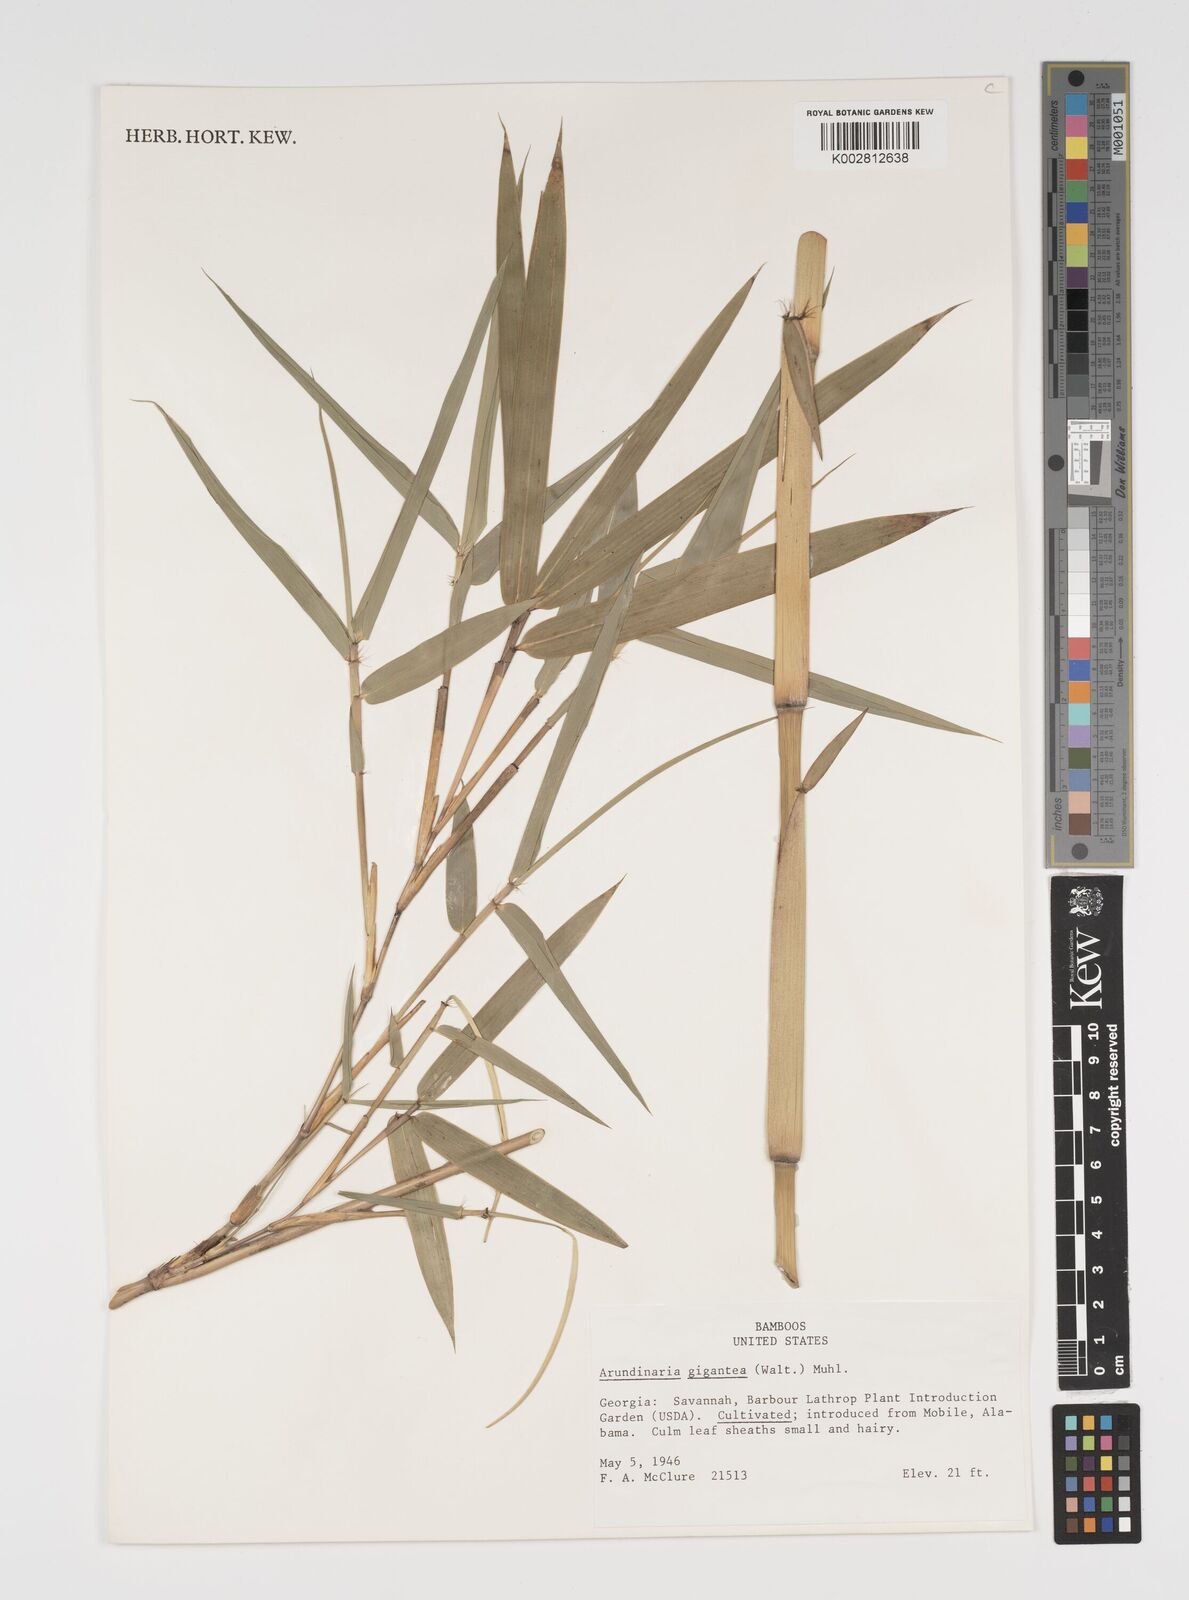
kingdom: Plantae
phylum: Tracheophyta
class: Liliopsida
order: Poales
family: Poaceae
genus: Arundinaria
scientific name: Arundinaria
